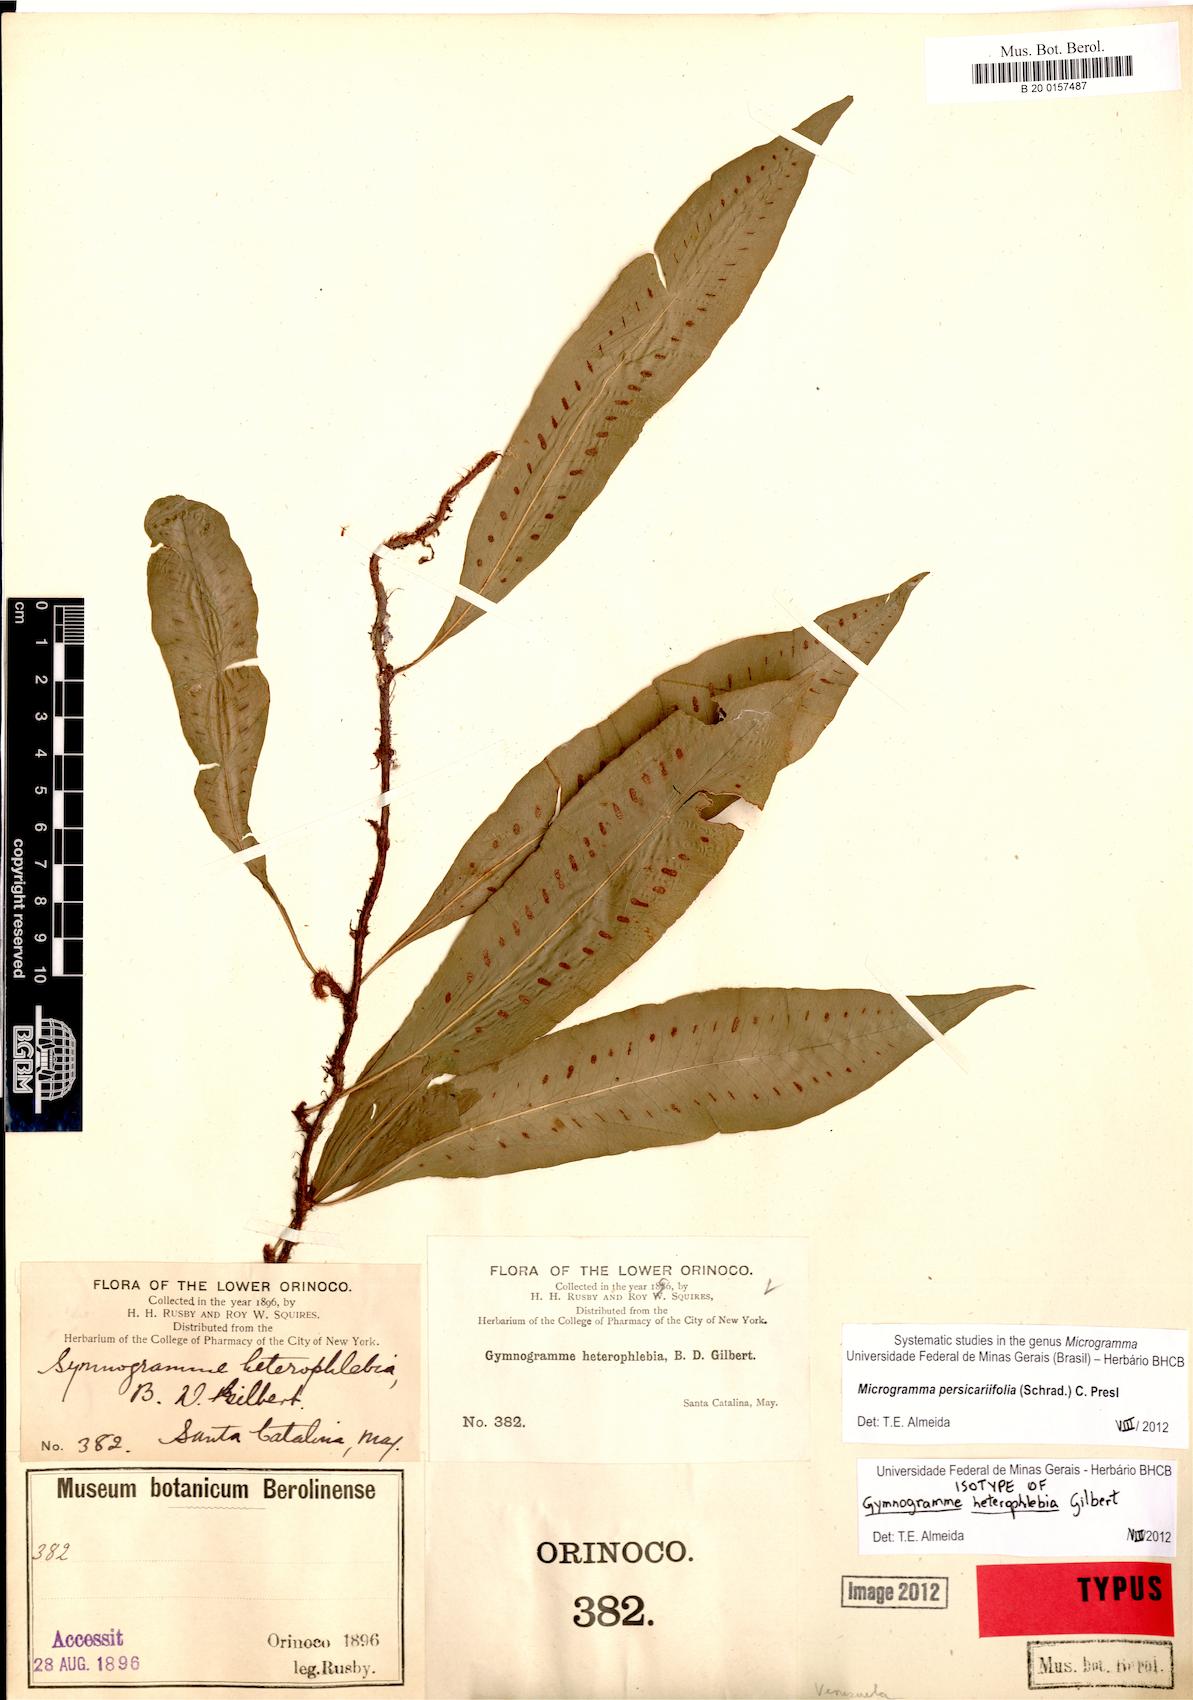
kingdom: Plantae
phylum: Tracheophyta
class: Polypodiopsida
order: Polypodiales
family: Polypodiaceae
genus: Microgramma
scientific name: Microgramma persicariifolia
